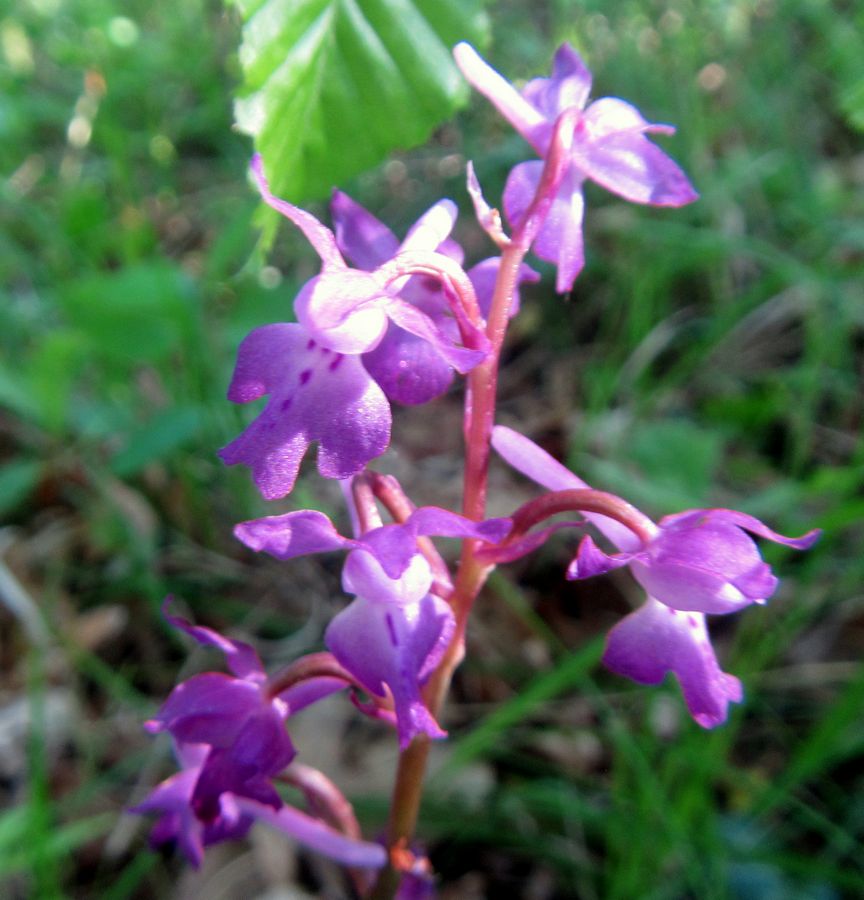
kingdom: Plantae
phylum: Tracheophyta
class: Liliopsida
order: Asparagales
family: Orchidaceae
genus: Orchis
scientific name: Orchis mascula
